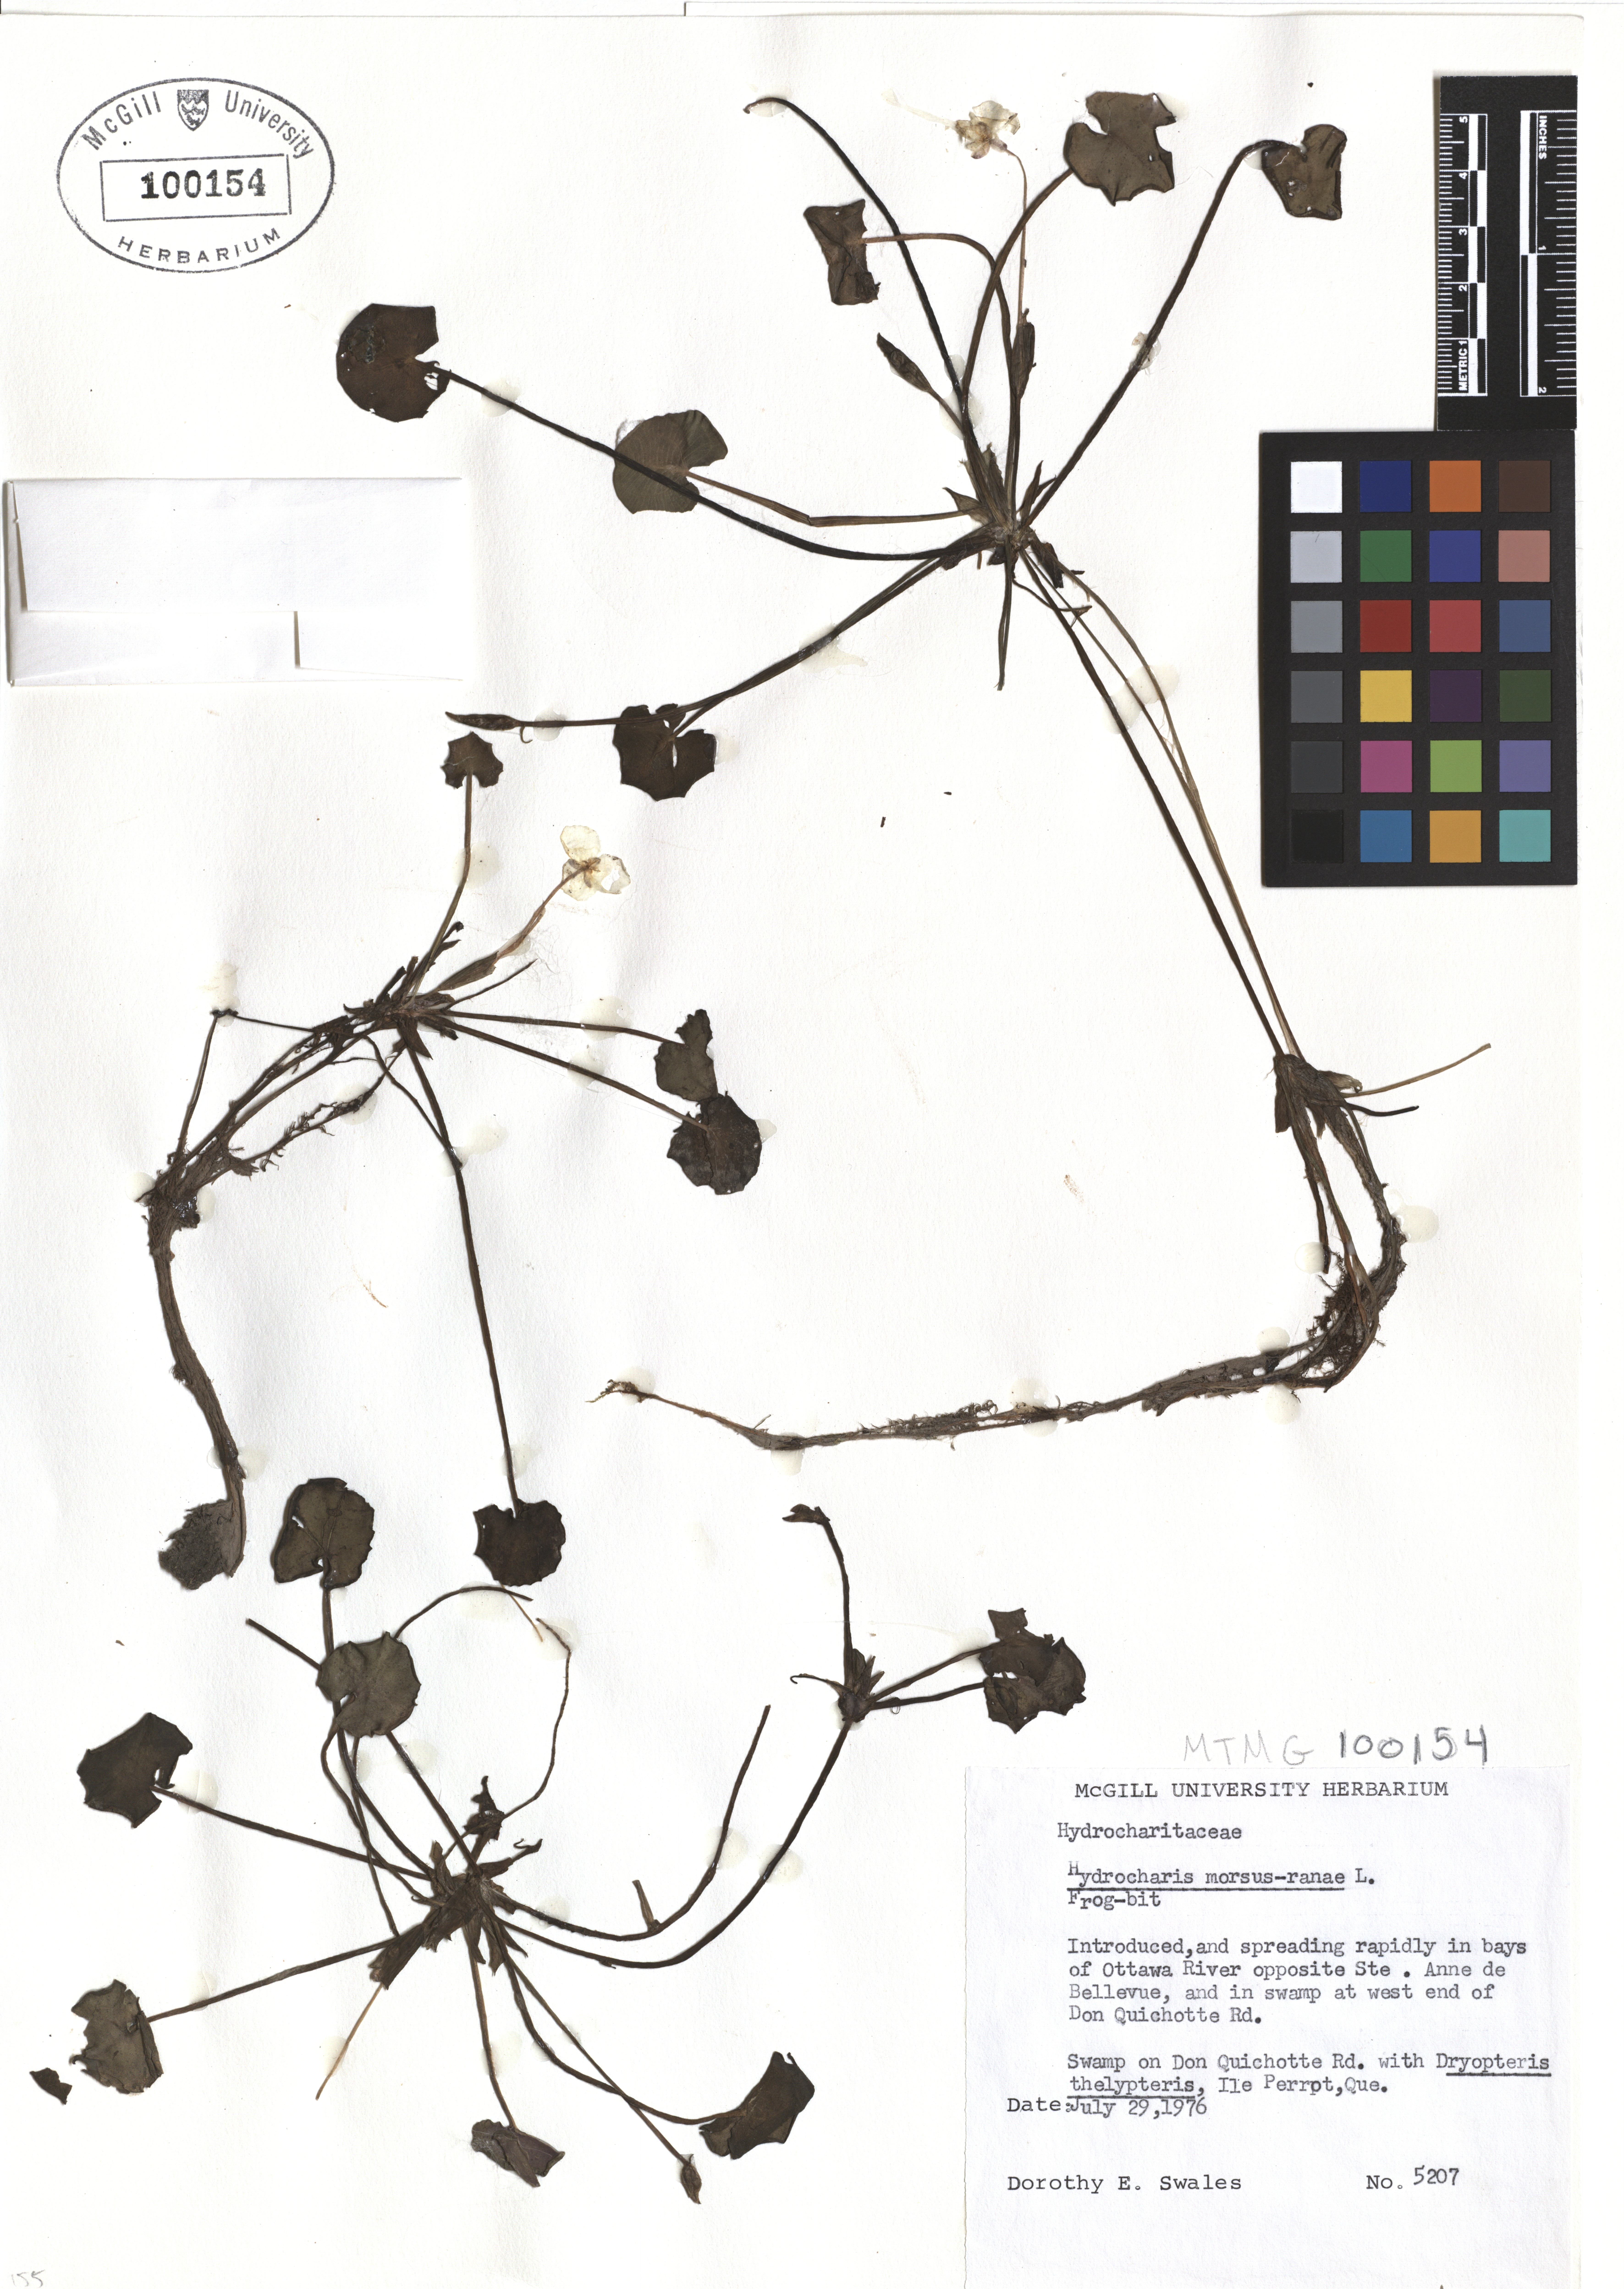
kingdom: Plantae
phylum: Tracheophyta
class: Liliopsida
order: Alismatales
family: Hydrocharitaceae
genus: Hydrocharis
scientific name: Hydrocharis morsus-ranae
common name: Frogbit
